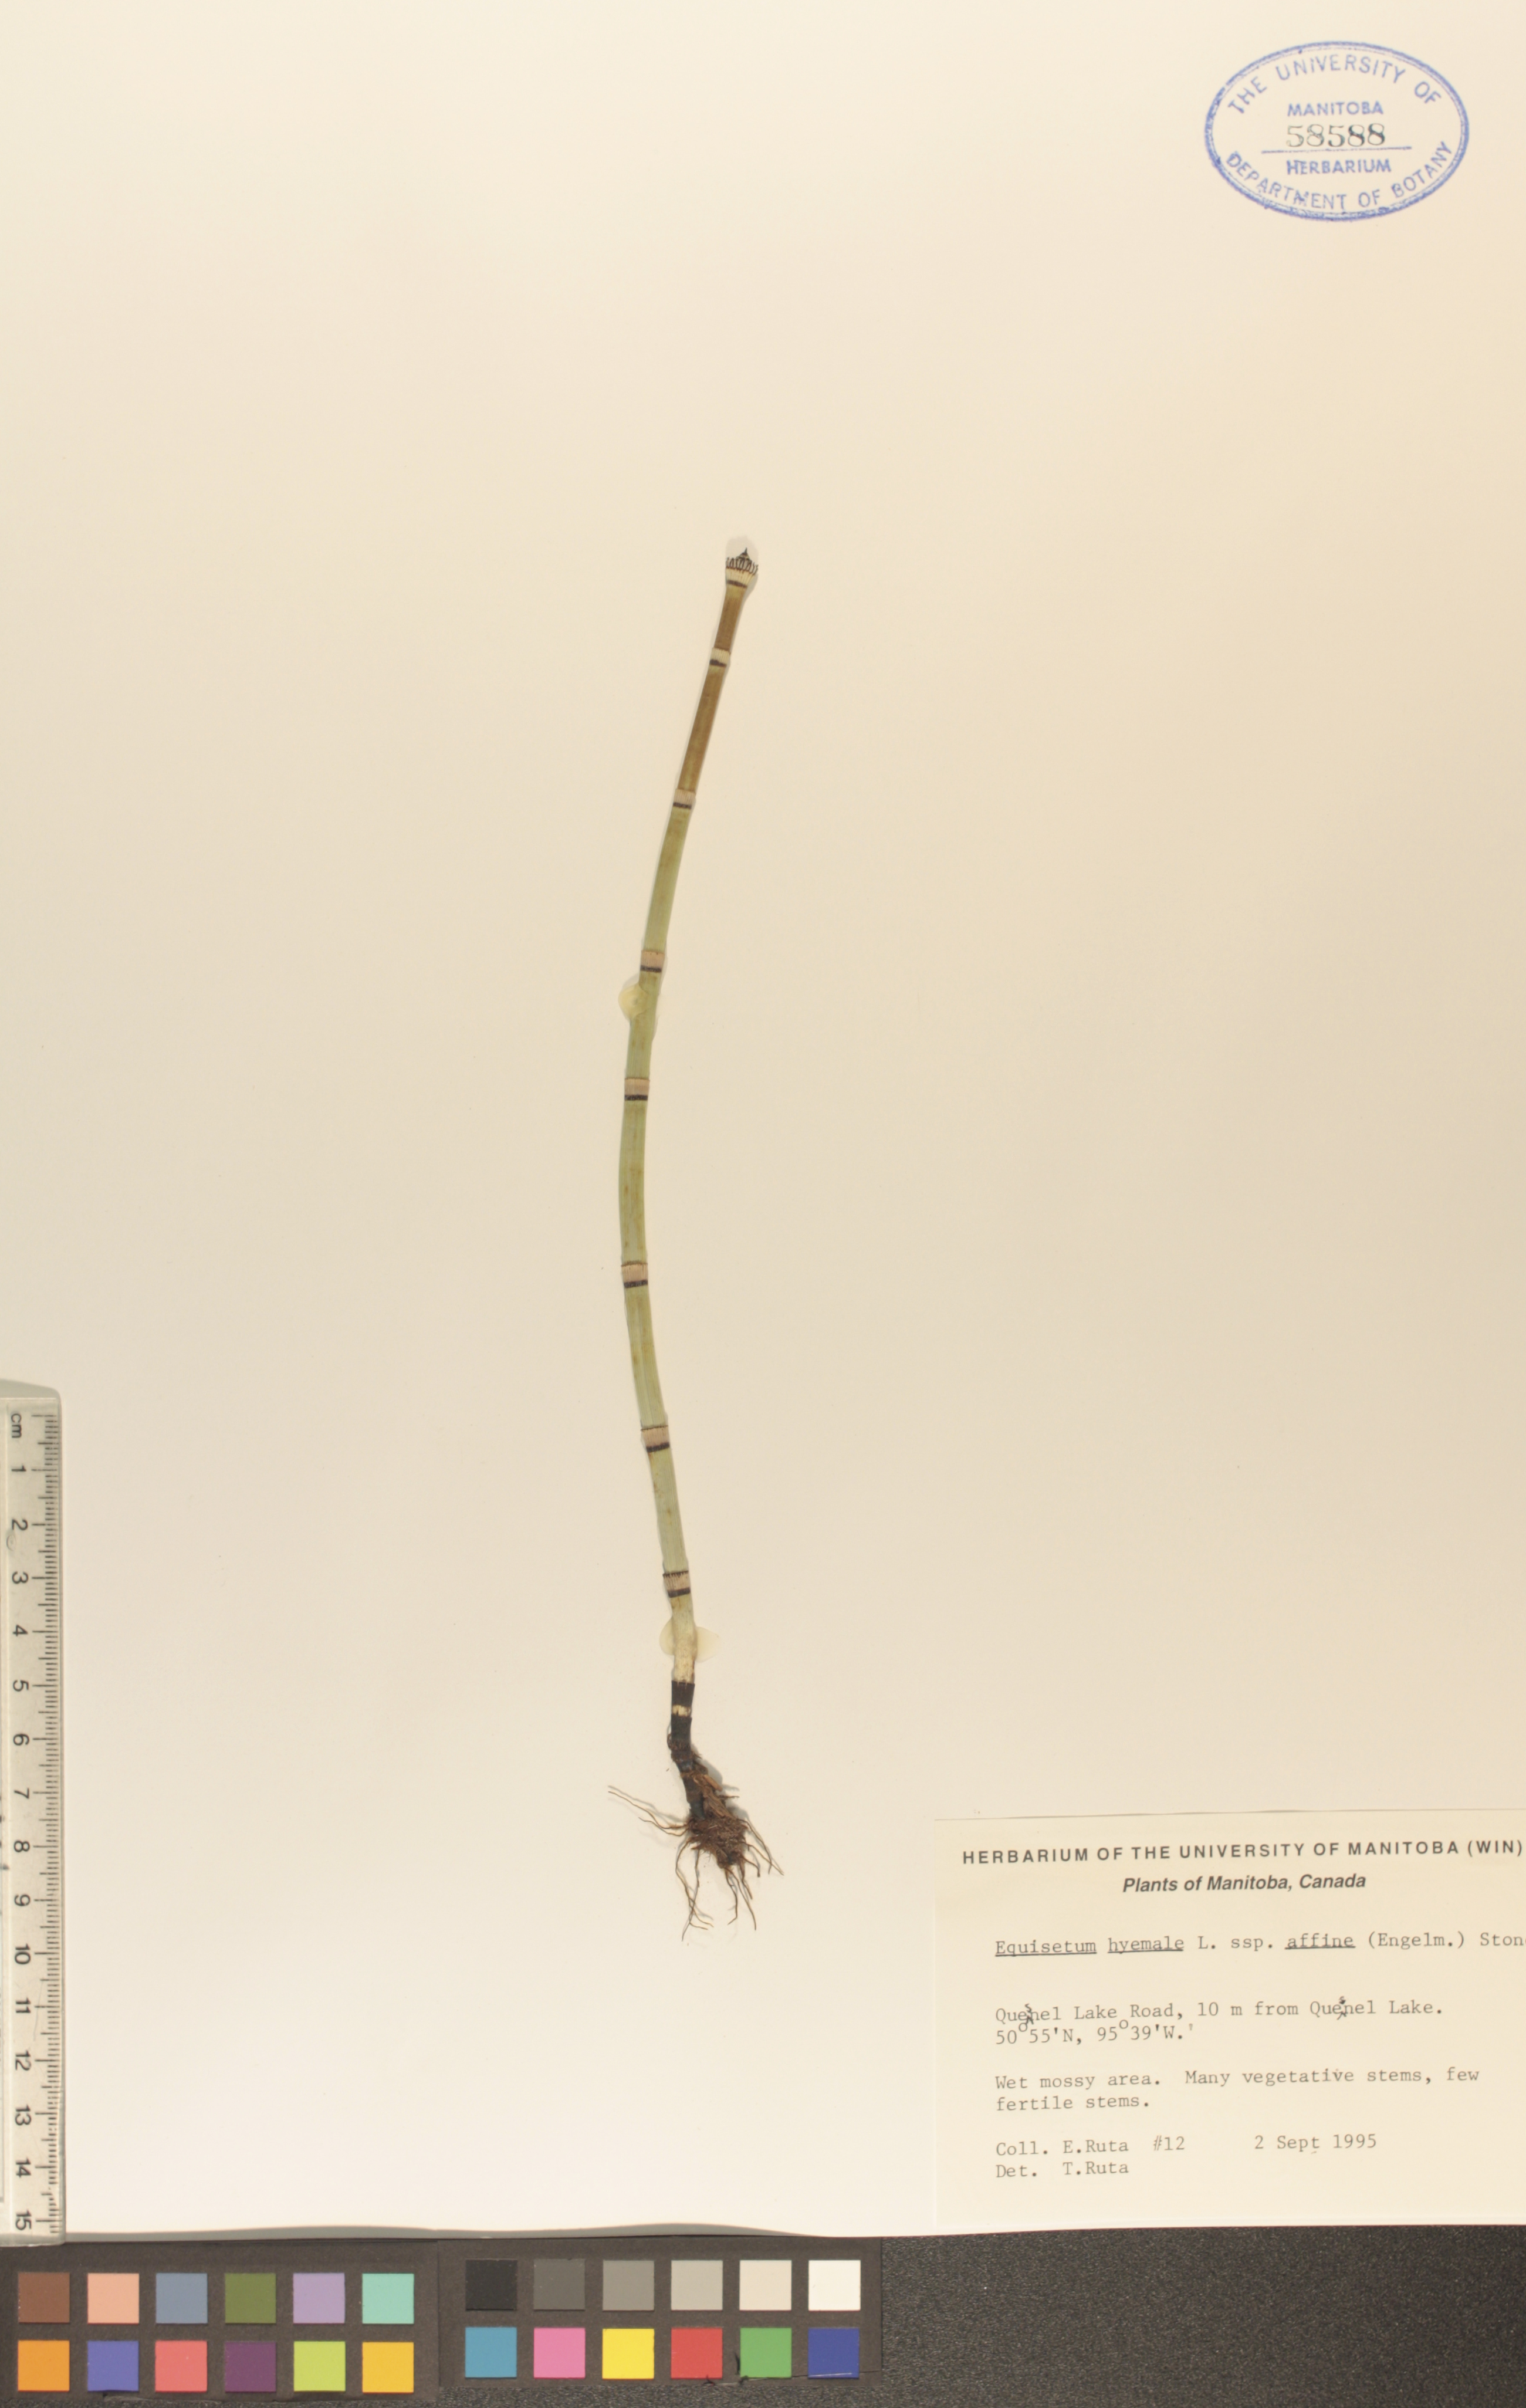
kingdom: Plantae
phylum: Tracheophyta
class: Polypodiopsida
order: Equisetales
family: Equisetaceae
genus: Equisetum
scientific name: Equisetum praealtum
